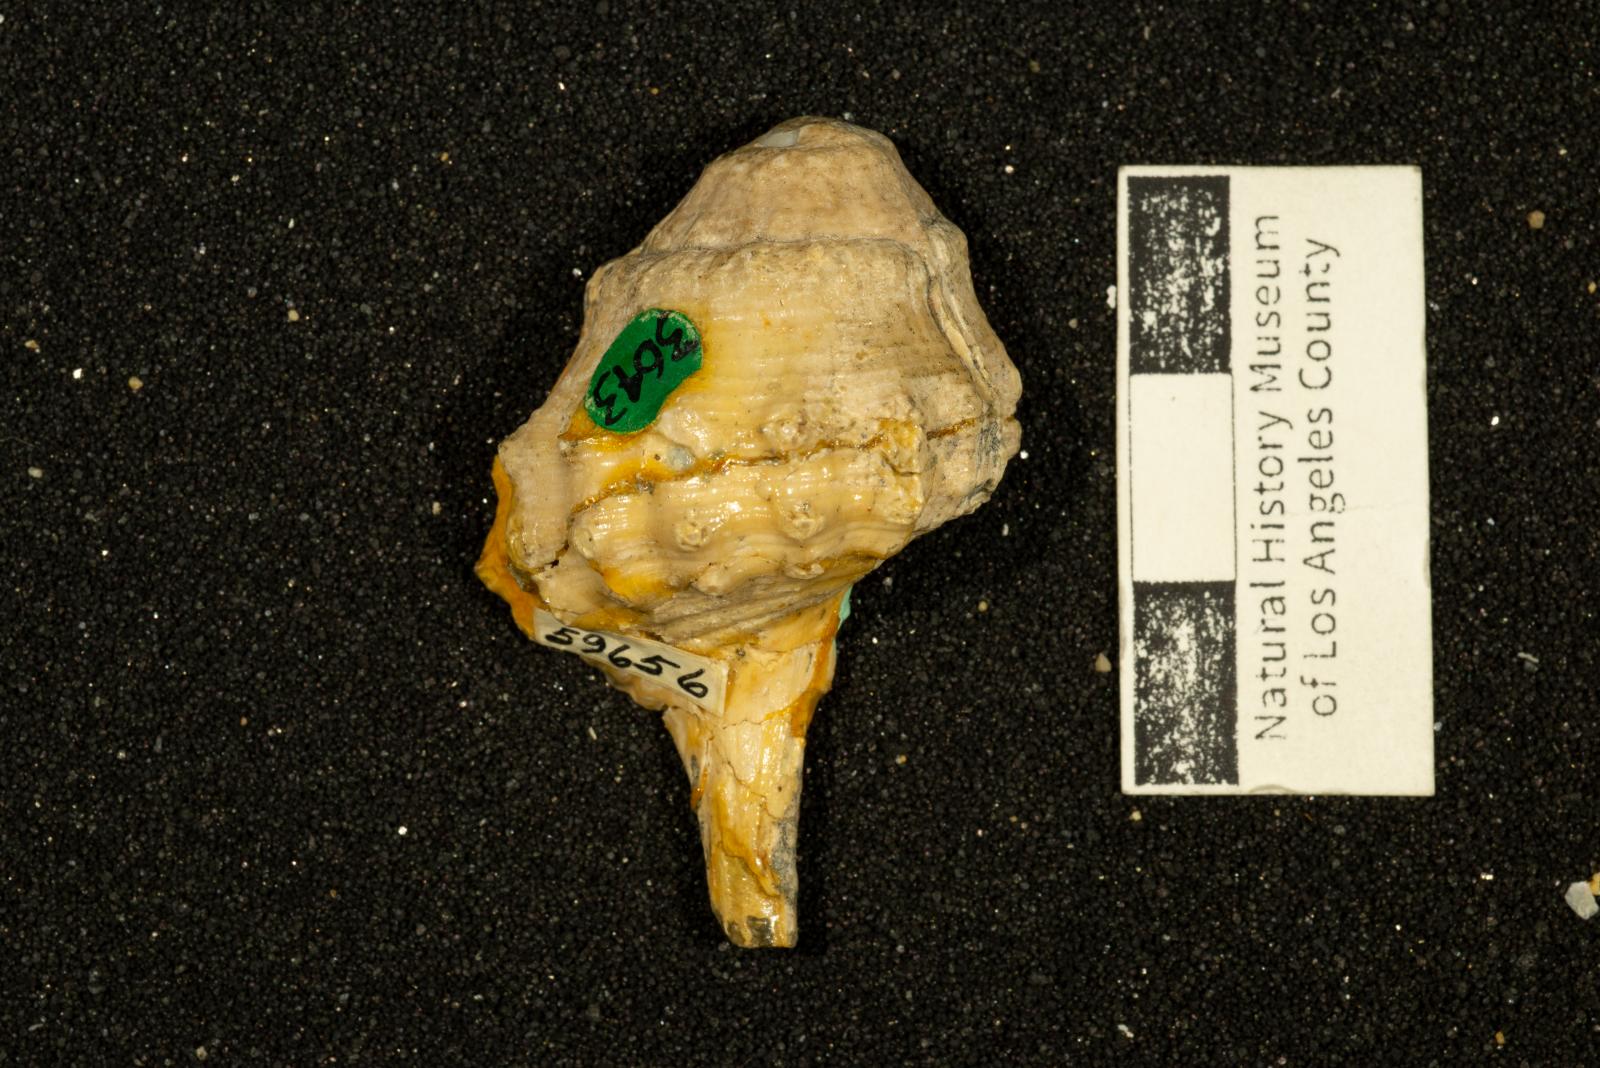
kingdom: Animalia
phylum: Mollusca
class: Gastropoda
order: Neogastropoda
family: Perissityidae
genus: Perissitys
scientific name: Perissitys Perissolax brevirostris
